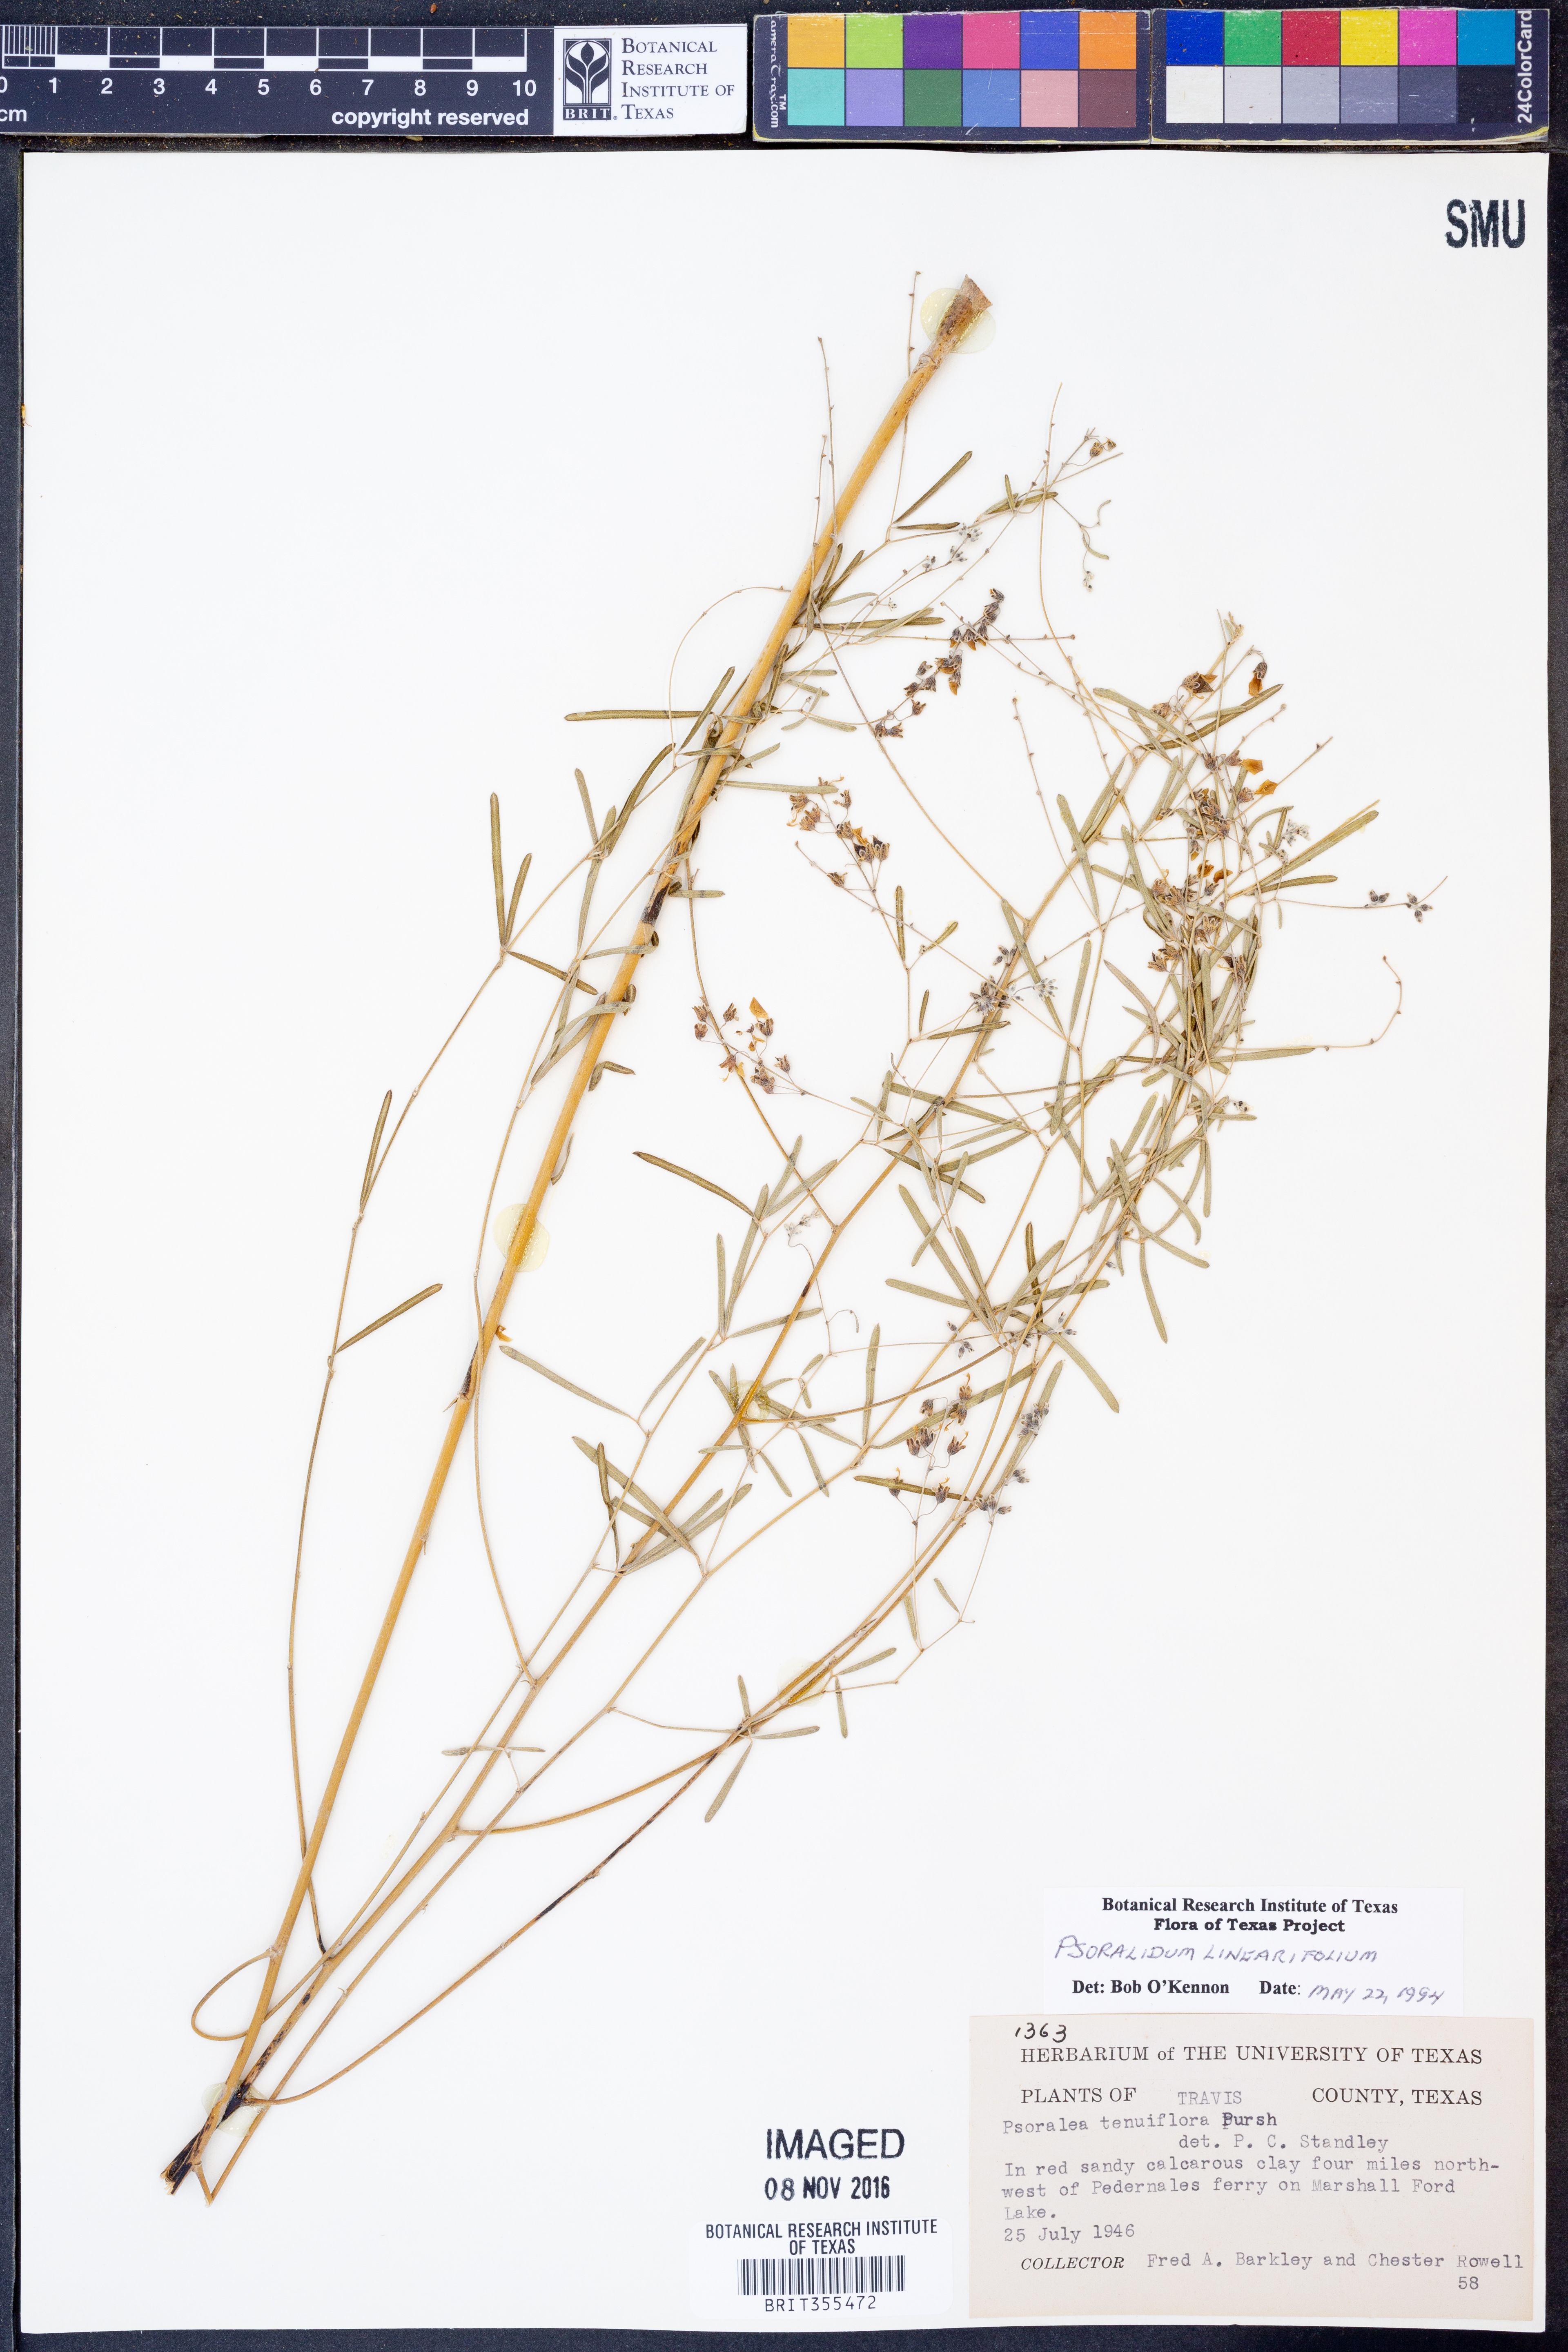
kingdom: Plantae
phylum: Tracheophyta
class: Magnoliopsida
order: Fabales
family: Fabaceae
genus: Pediomelum
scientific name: Pediomelum linearifolium
